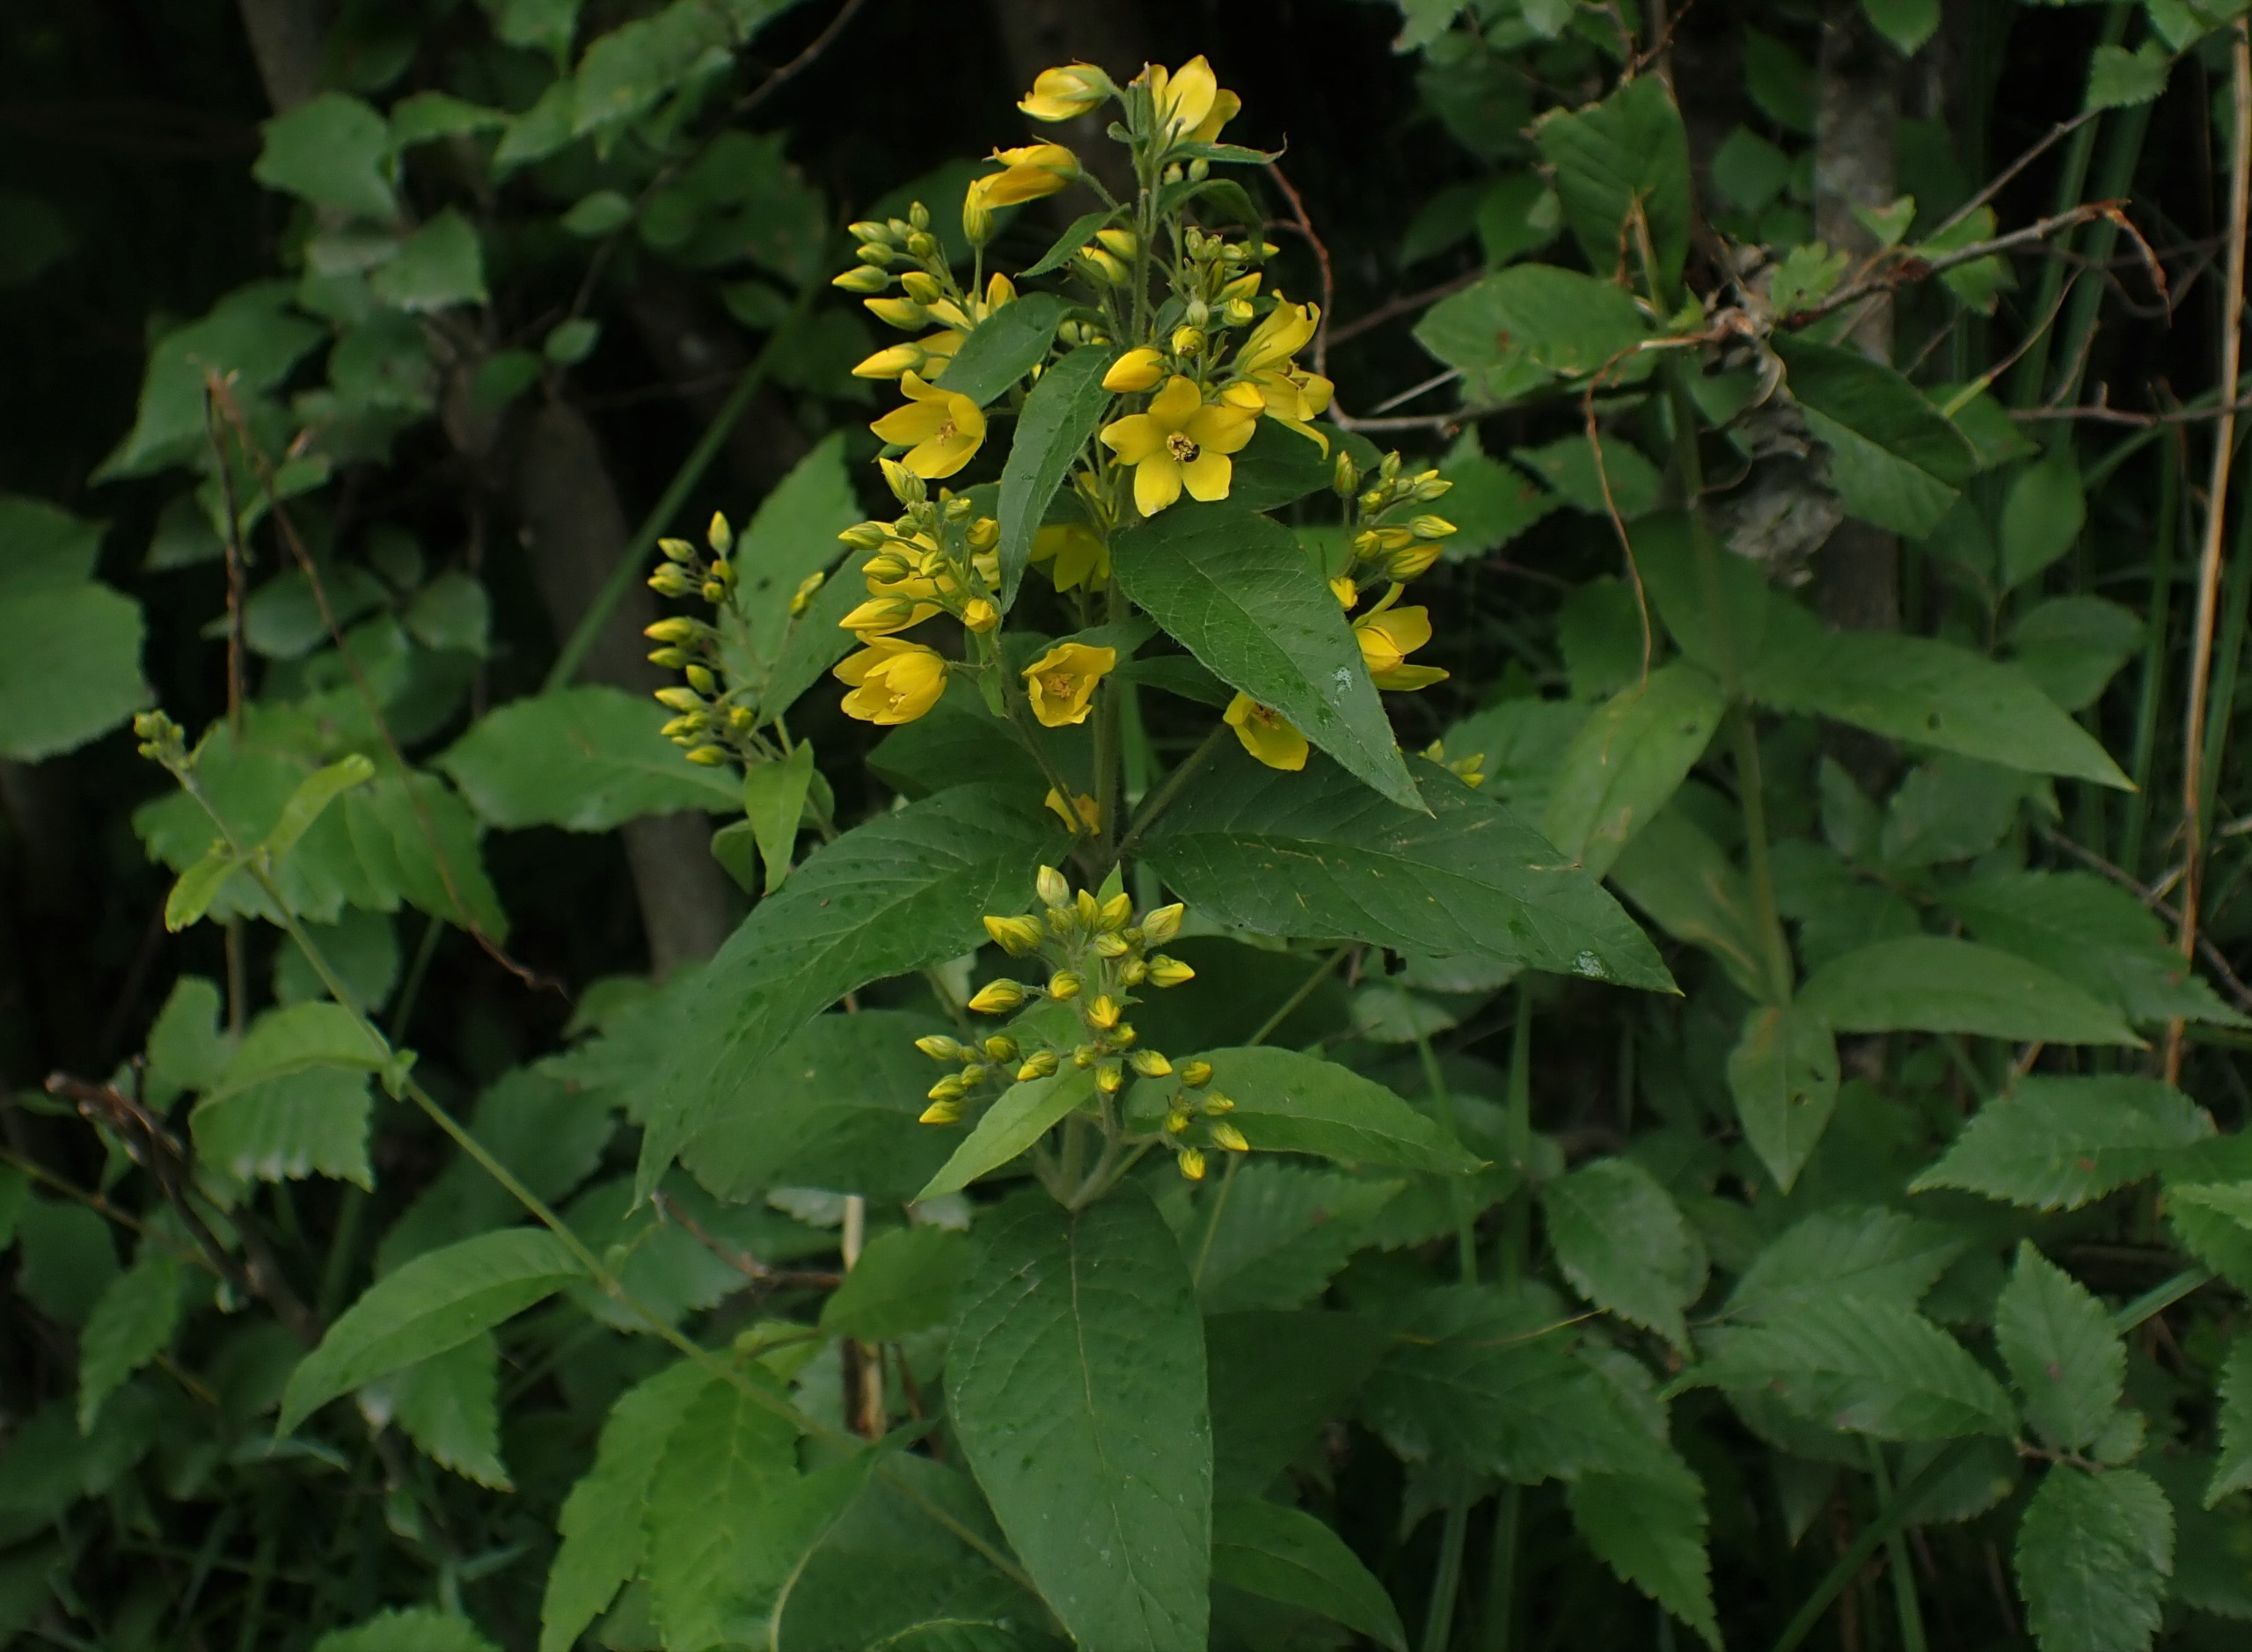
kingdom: Plantae
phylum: Tracheophyta
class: Magnoliopsida
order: Ericales
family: Primulaceae
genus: Lysimachia
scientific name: Lysimachia vulgaris
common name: Almindelig fredløs
